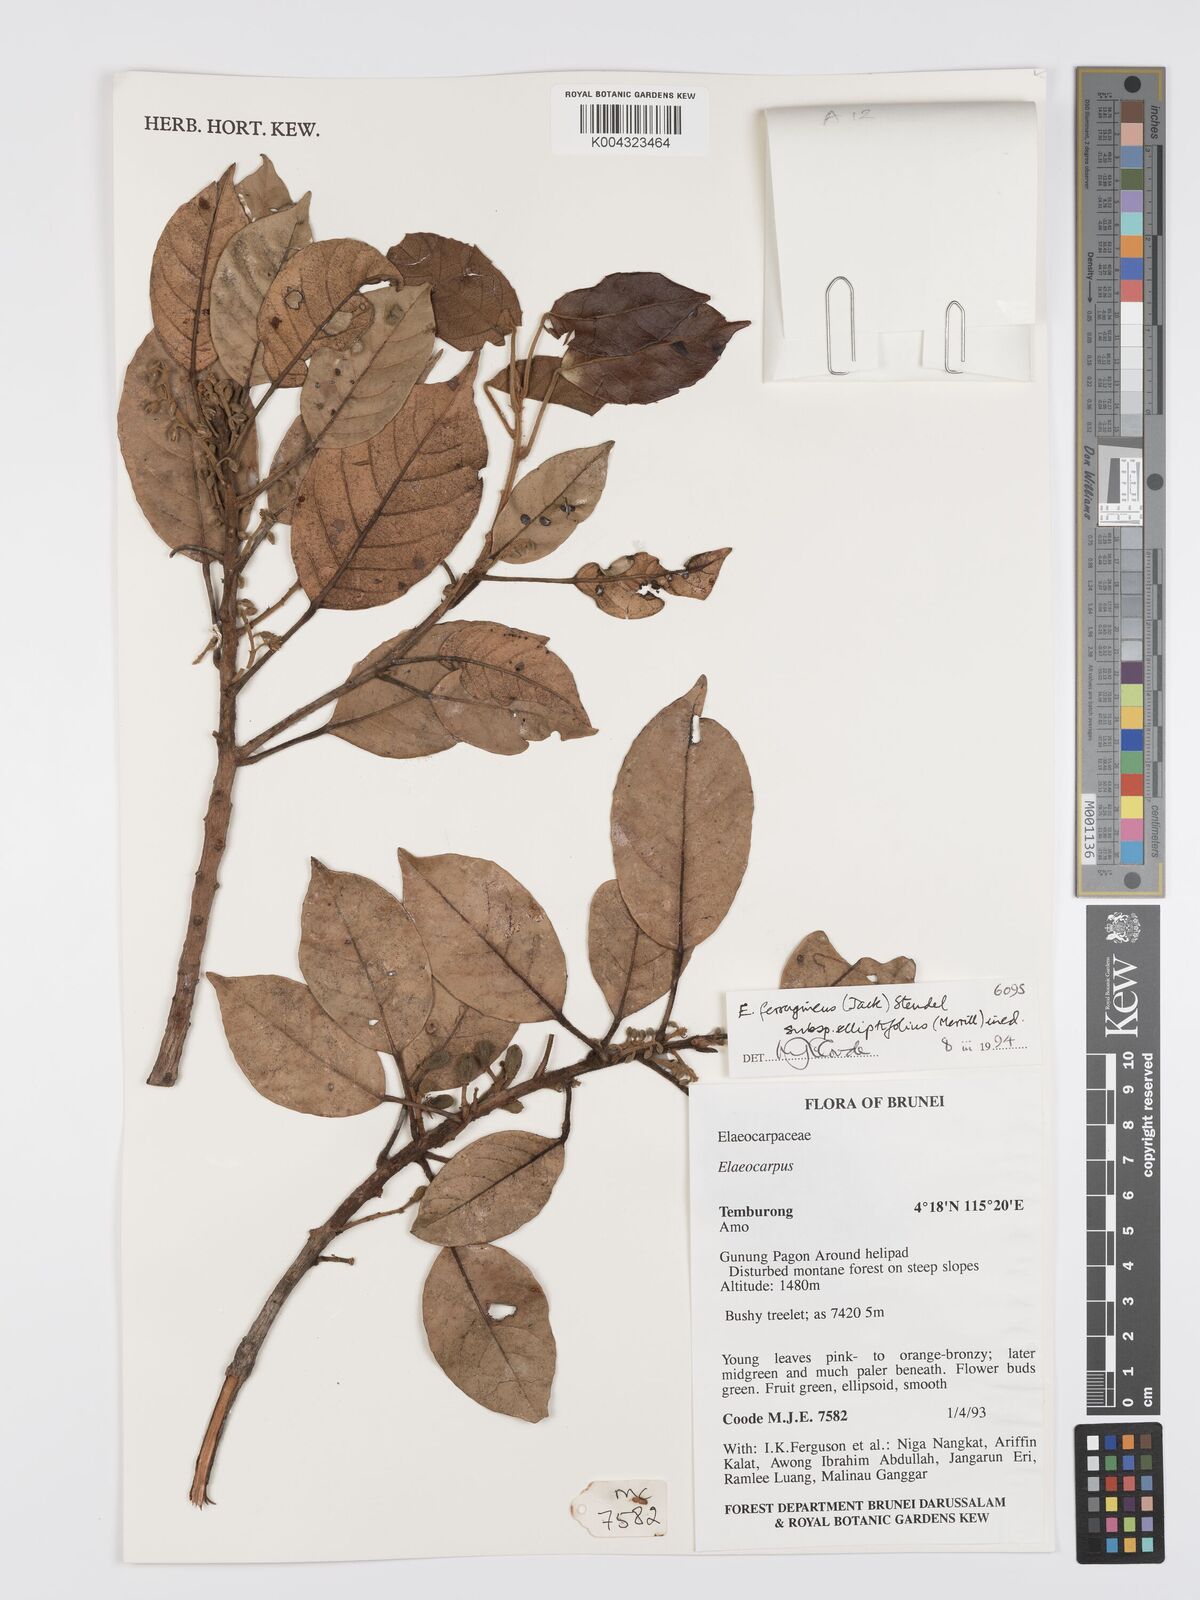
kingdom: Plantae
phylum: Tracheophyta
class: Magnoliopsida
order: Oxalidales
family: Elaeocarpaceae
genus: Elaeocarpus
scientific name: Elaeocarpus ferrugineus
